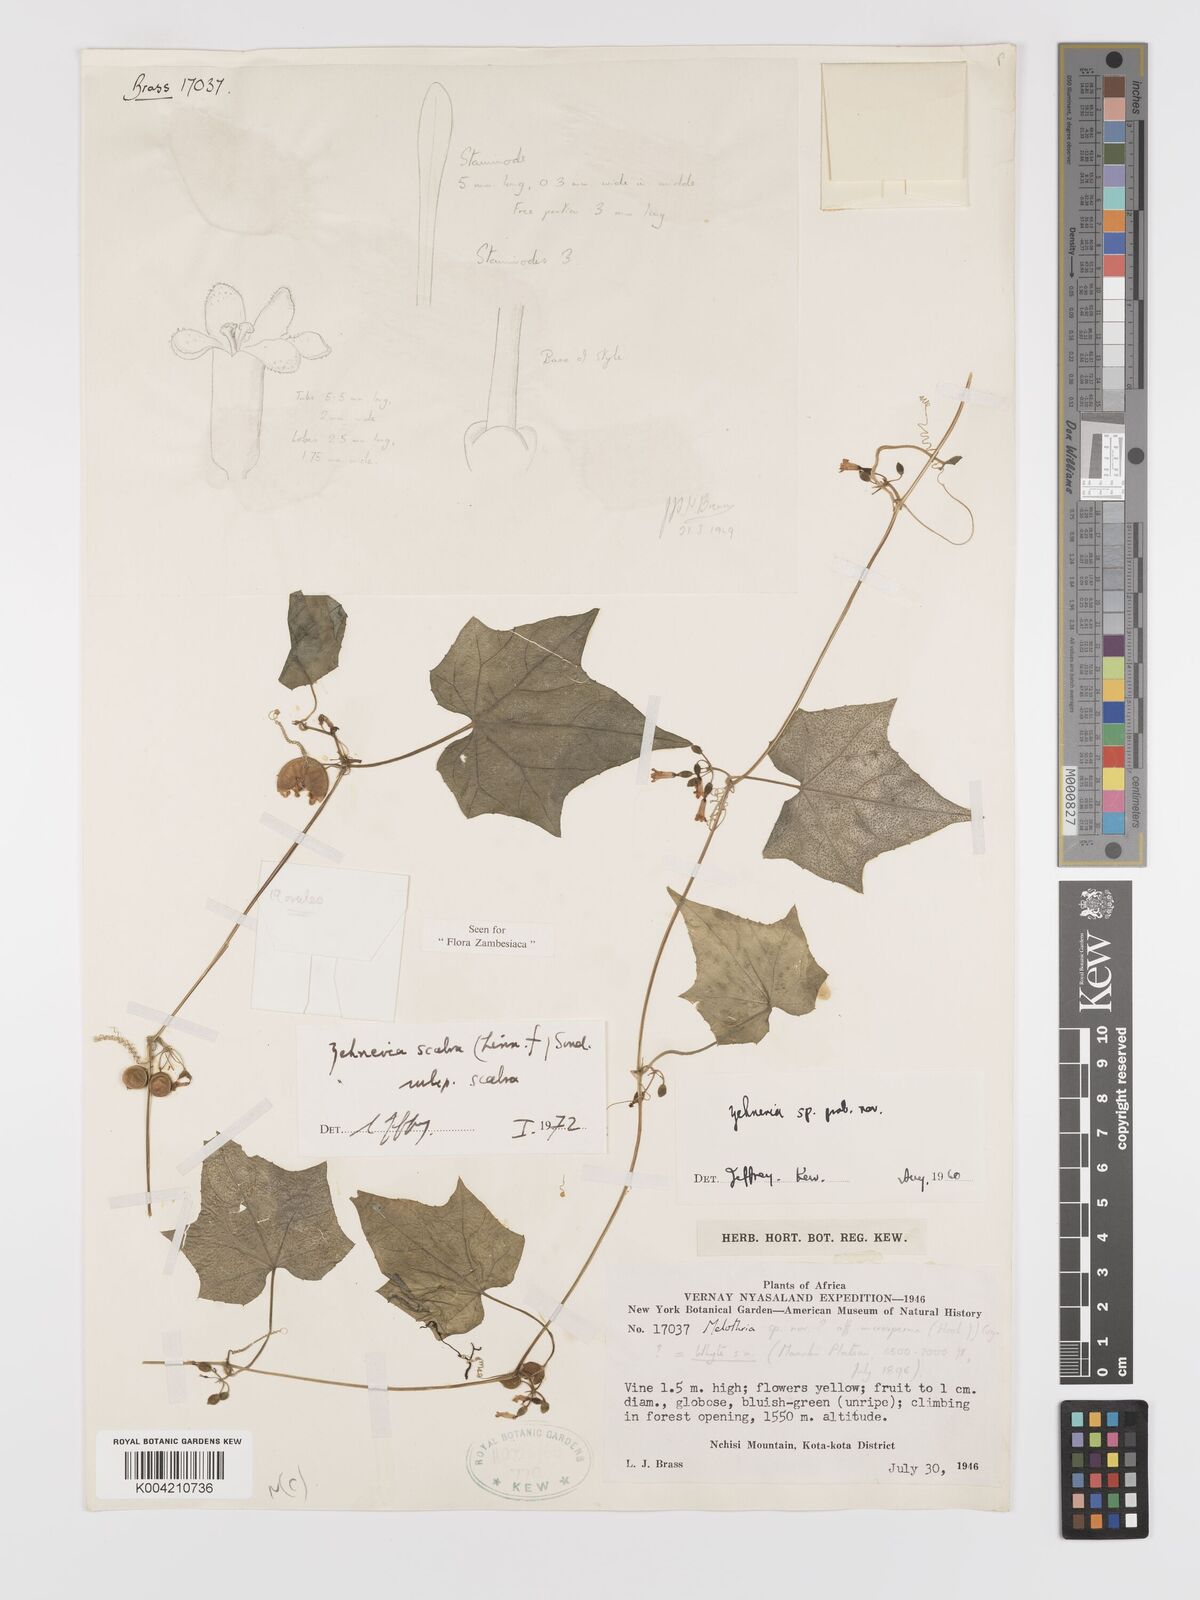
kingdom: Plantae
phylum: Tracheophyta
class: Magnoliopsida
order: Cucurbitales
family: Cucurbitaceae
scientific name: Cucurbitaceae
